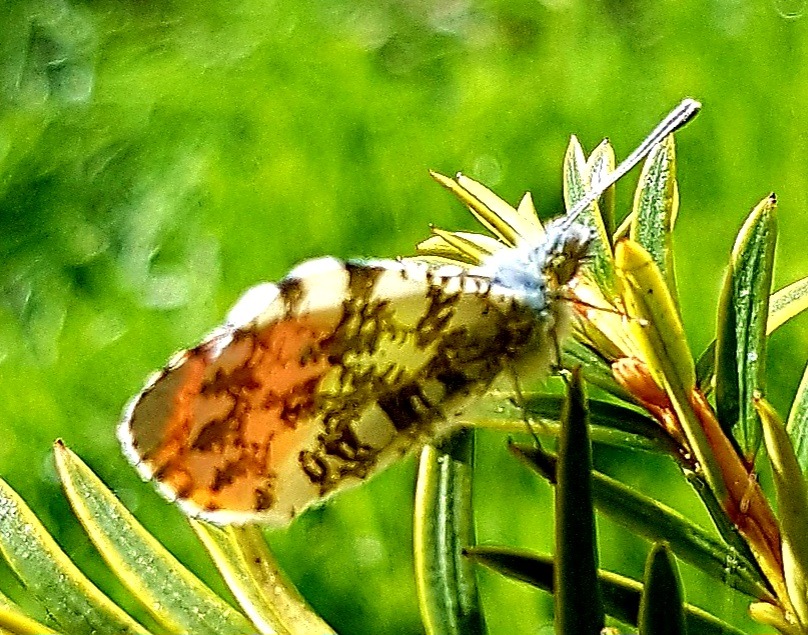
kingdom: Animalia
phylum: Arthropoda
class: Insecta
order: Lepidoptera
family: Pieridae
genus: Anthocharis
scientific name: Anthocharis cardamines
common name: Aurora
